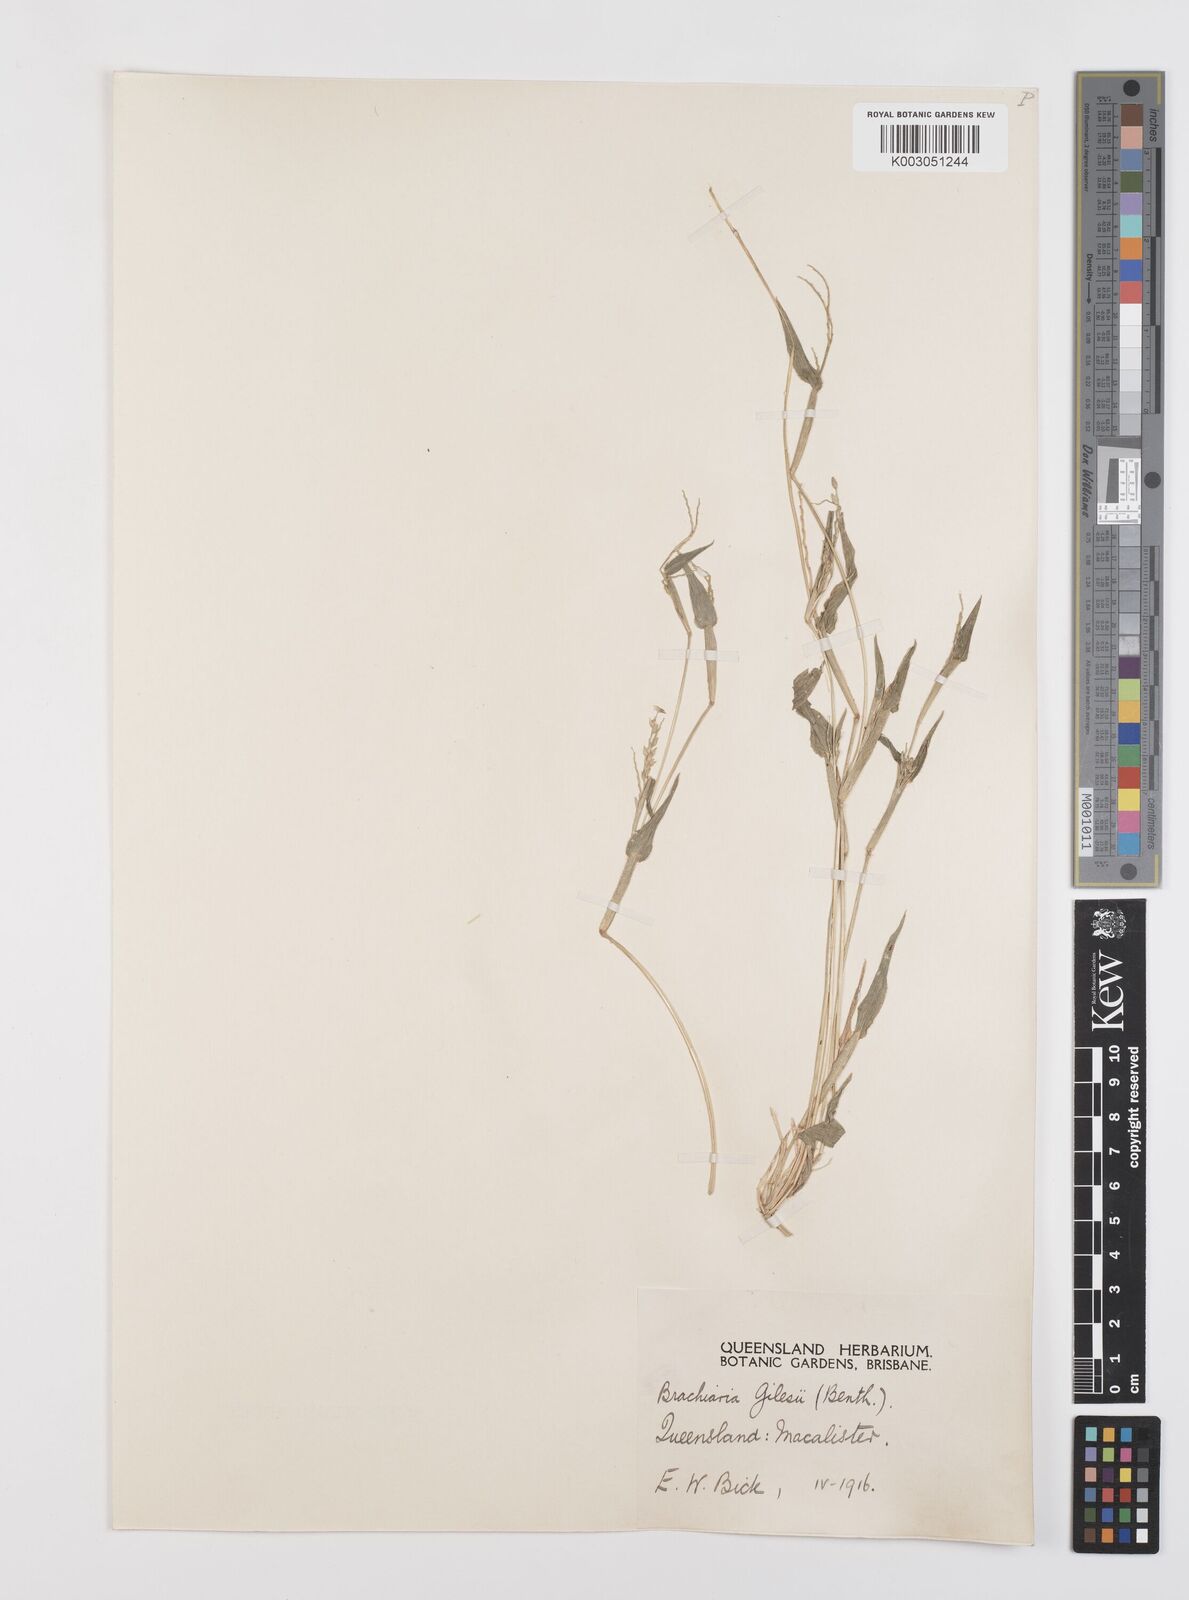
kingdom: Plantae
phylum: Tracheophyta
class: Liliopsida
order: Poales
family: Poaceae
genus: Urochloa
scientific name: Urochloa gilesii
